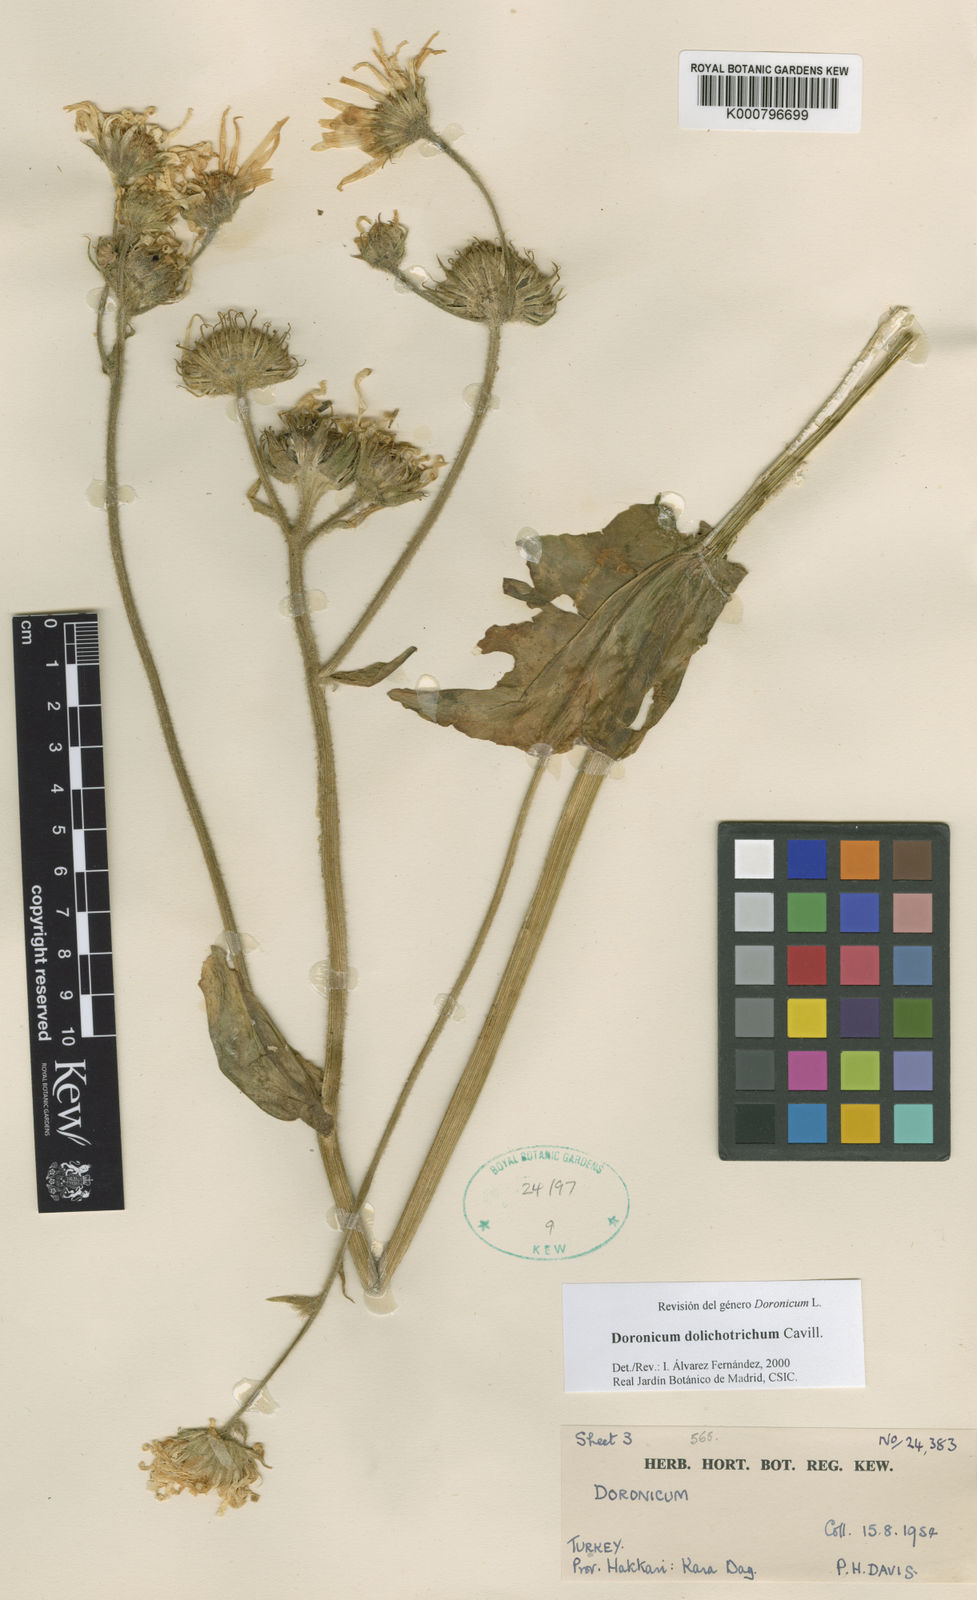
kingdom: Plantae
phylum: Tracheophyta
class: Magnoliopsida
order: Asterales
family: Asteraceae
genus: Doronicum
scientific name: Doronicum dolichotrichum
